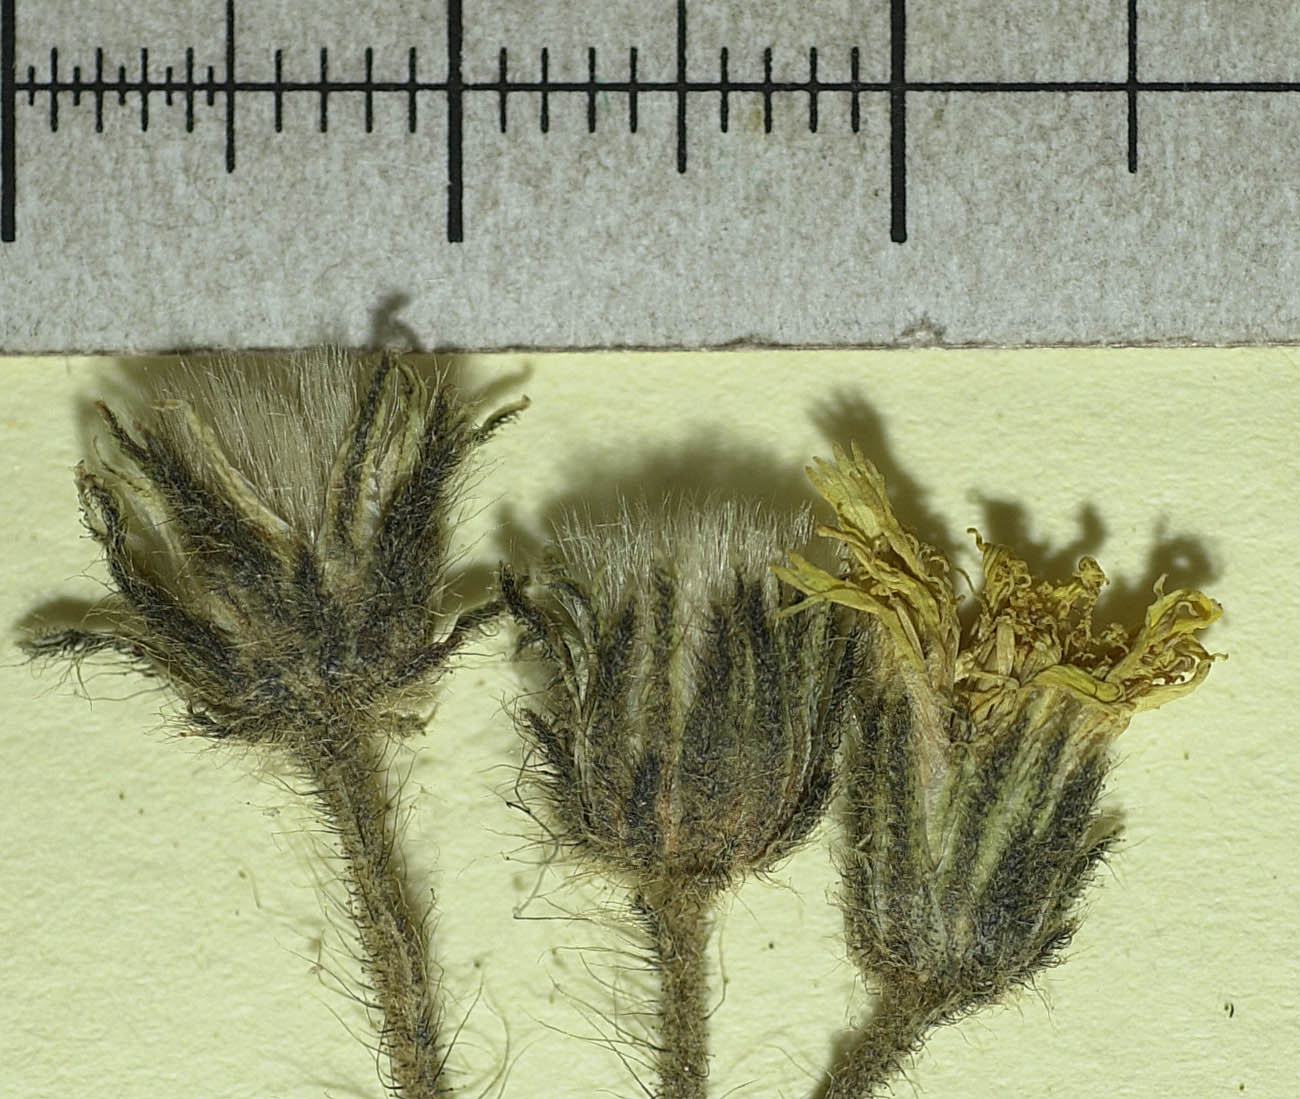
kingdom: Plantae
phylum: Tracheophyta
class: Magnoliopsida
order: Asterales
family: Asteraceae
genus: Pilosella
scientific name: Pilosella medioposita
